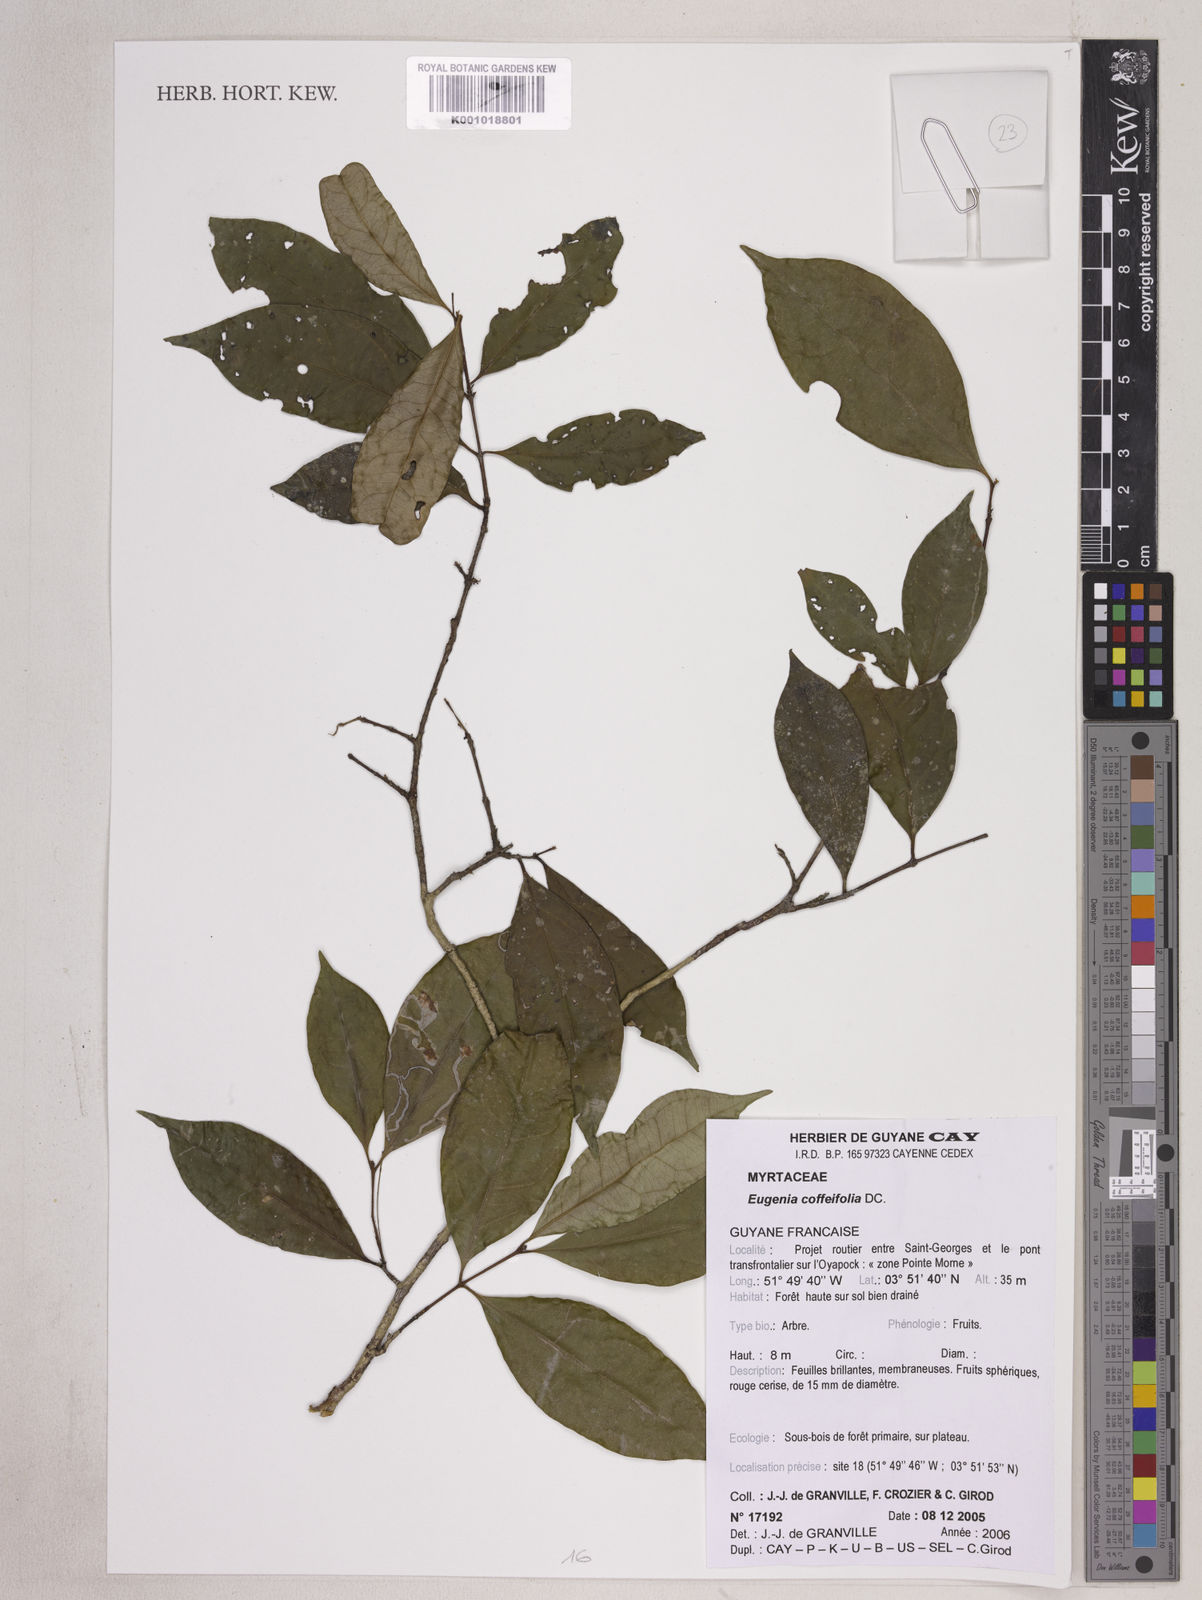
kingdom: Plantae
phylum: Tracheophyta
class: Magnoliopsida
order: Myrtales
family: Myrtaceae
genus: Eugenia
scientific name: Eugenia coffeifolia
